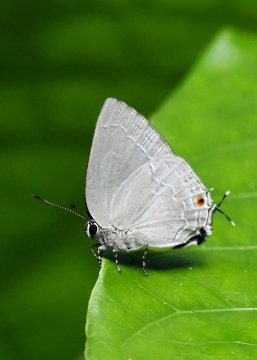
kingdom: Animalia
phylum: Arthropoda
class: Insecta
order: Lepidoptera
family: Lycaenidae
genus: Strephonota
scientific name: Strephonota tephraeus
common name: Pearly-Gray Hairstreak
